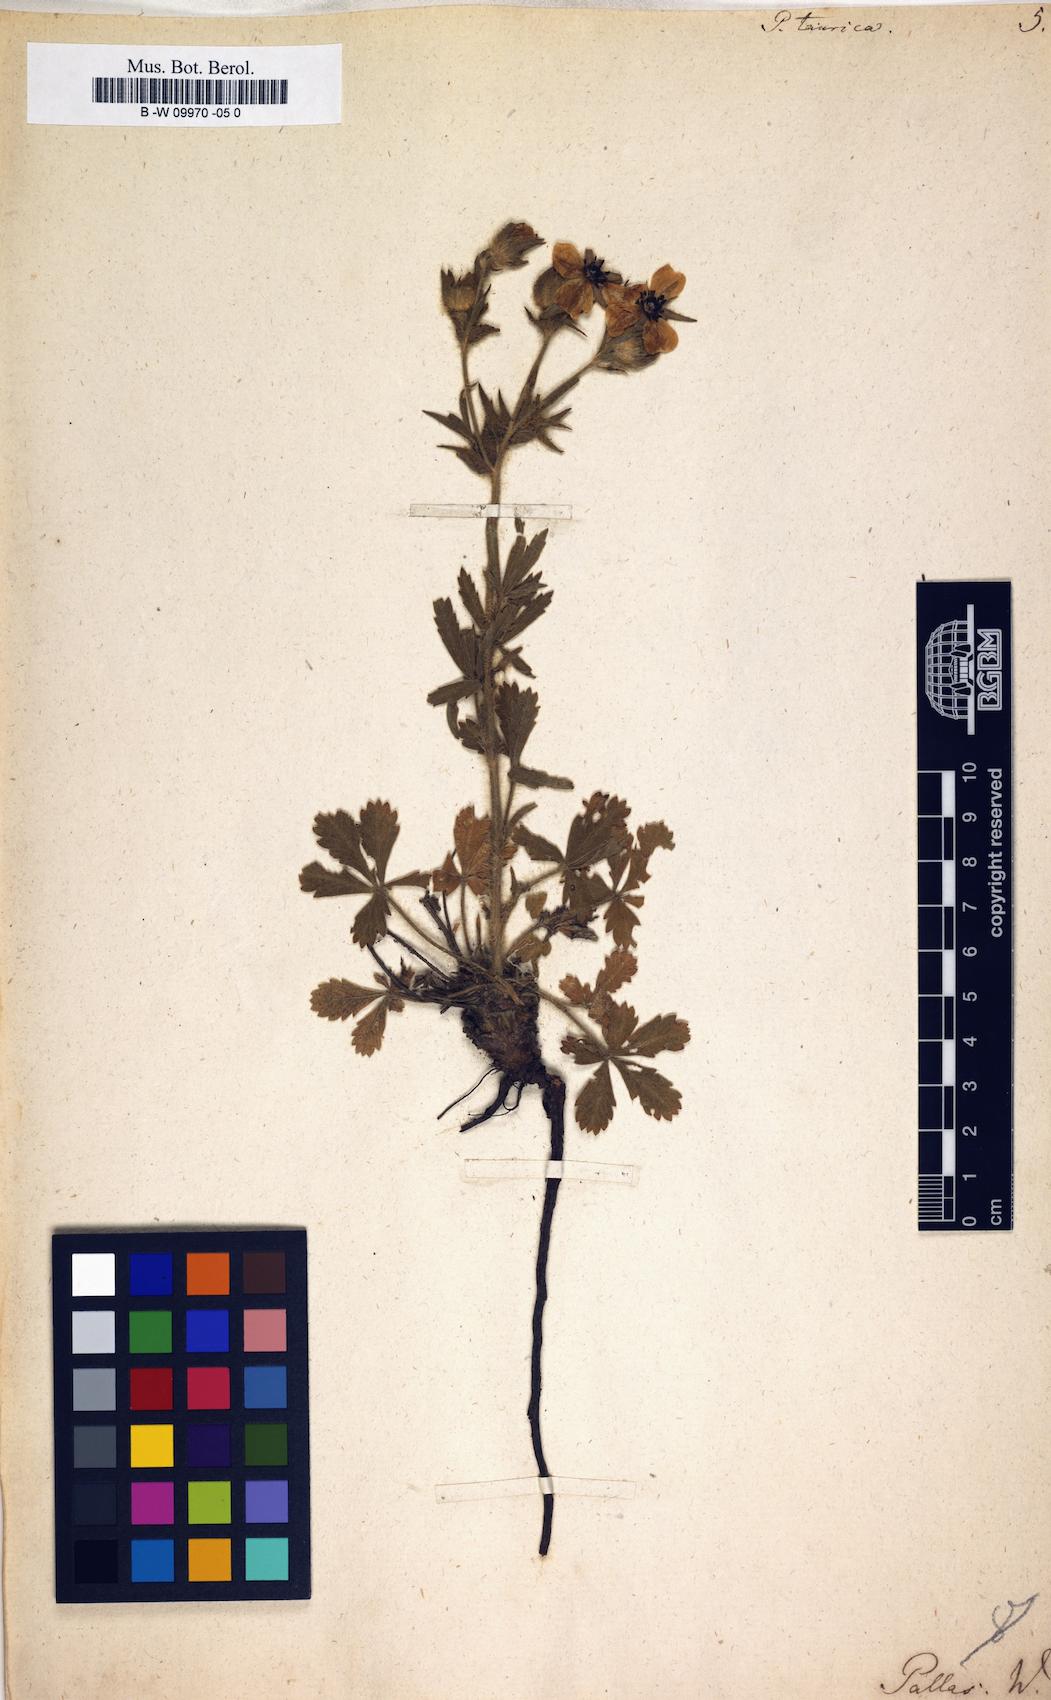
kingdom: Plantae
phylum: Tracheophyta
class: Magnoliopsida
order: Rosales
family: Rosaceae
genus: Potentilla
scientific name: Potentilla taurica
